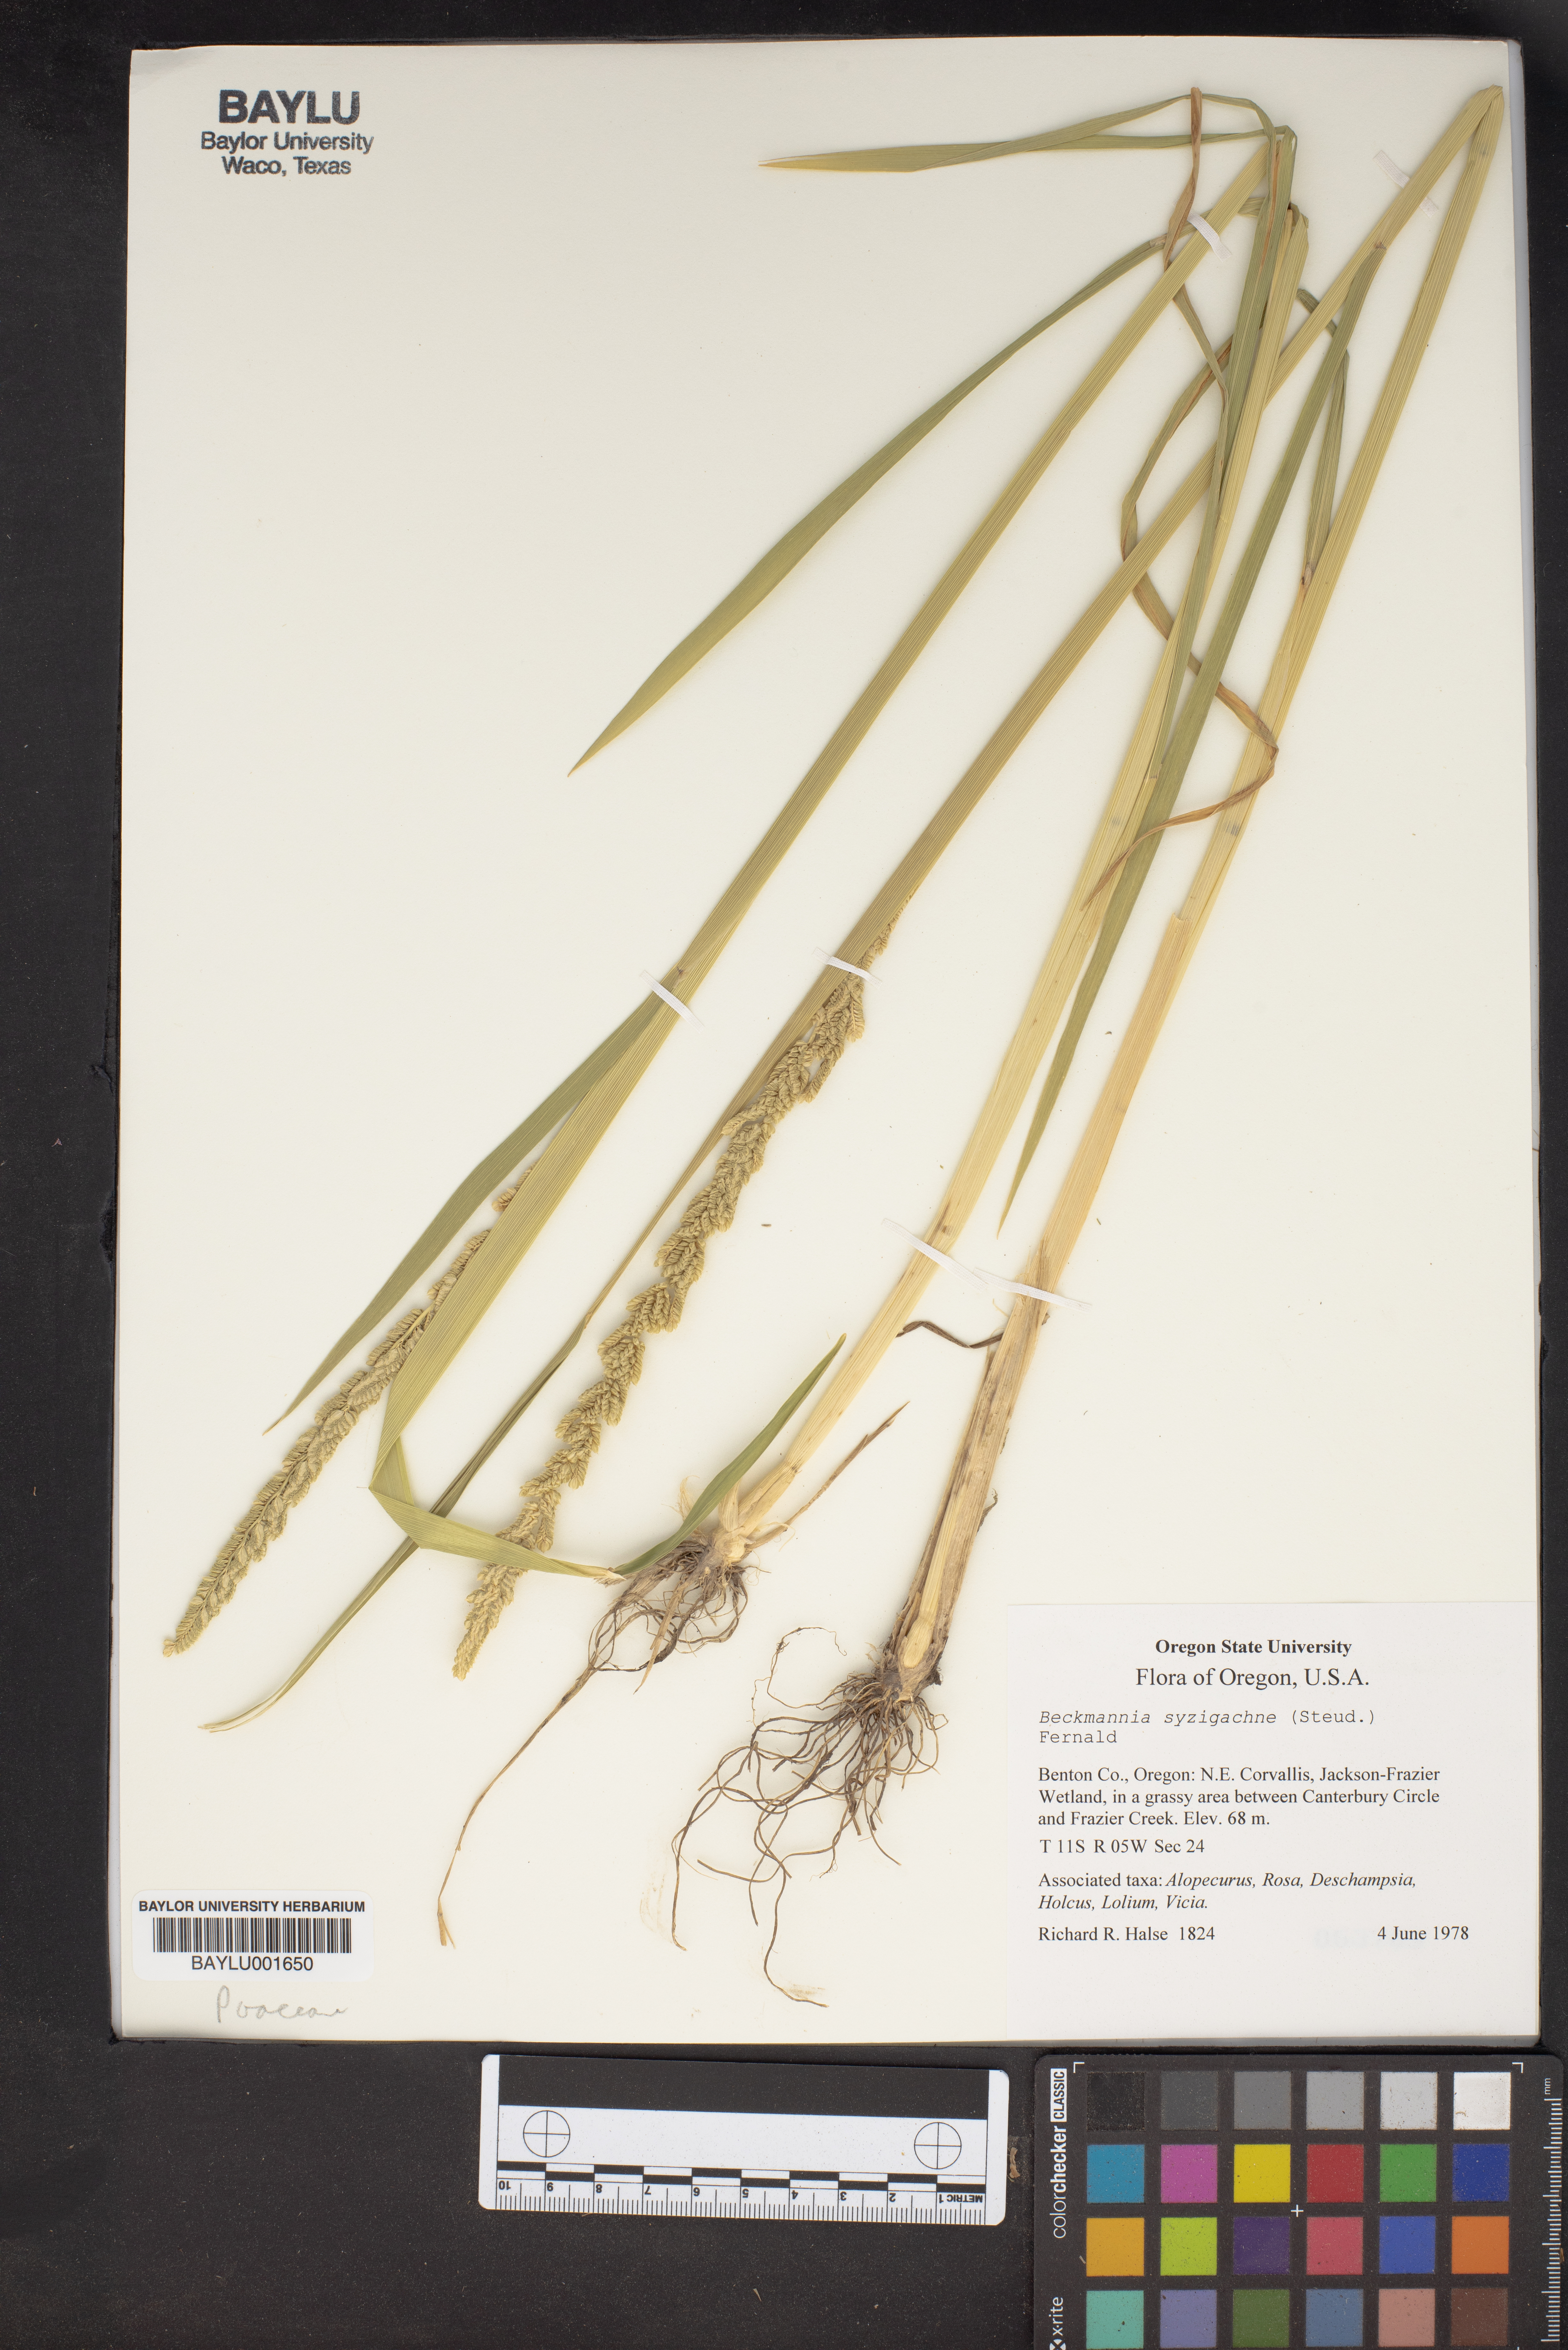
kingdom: Plantae
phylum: Tracheophyta
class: Liliopsida
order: Poales
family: Poaceae
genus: Beckmannia
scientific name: Beckmannia syzigachne
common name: American slough-grass
